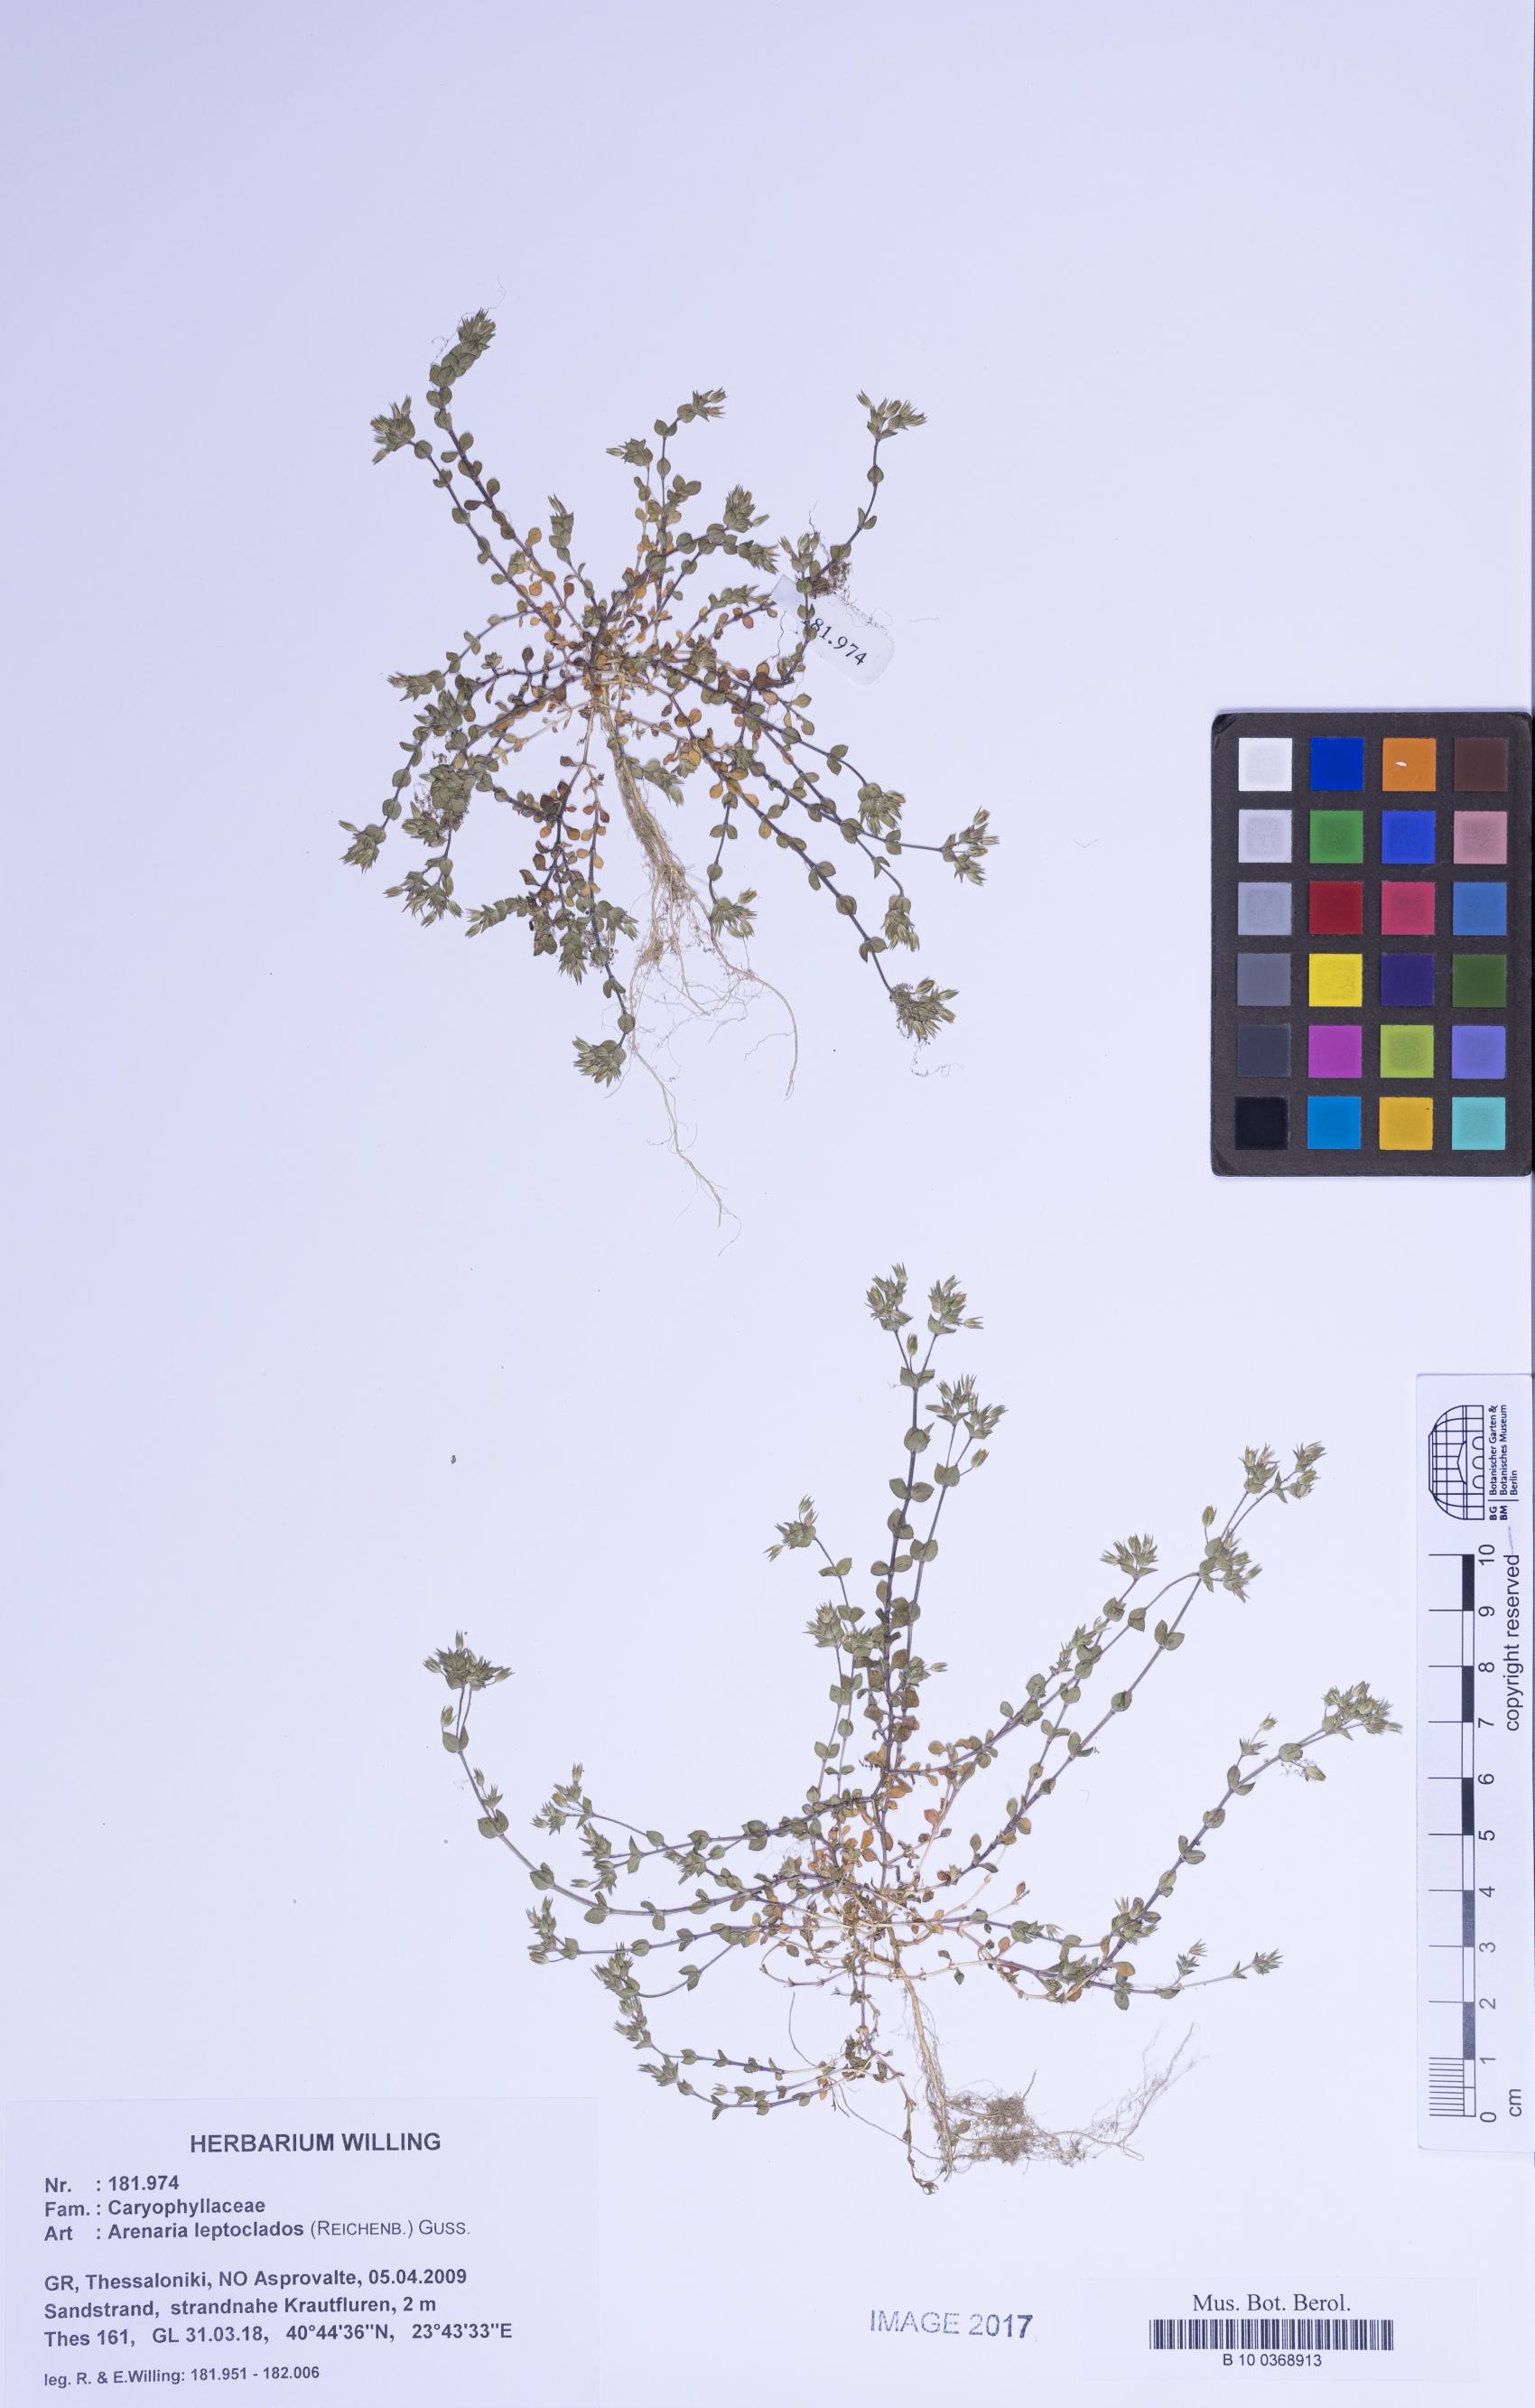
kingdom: Plantae
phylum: Tracheophyta
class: Magnoliopsida
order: Caryophyllales
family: Caryophyllaceae
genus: Arenaria
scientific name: Arenaria leptoclados
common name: Thyme-leaved sandwort
